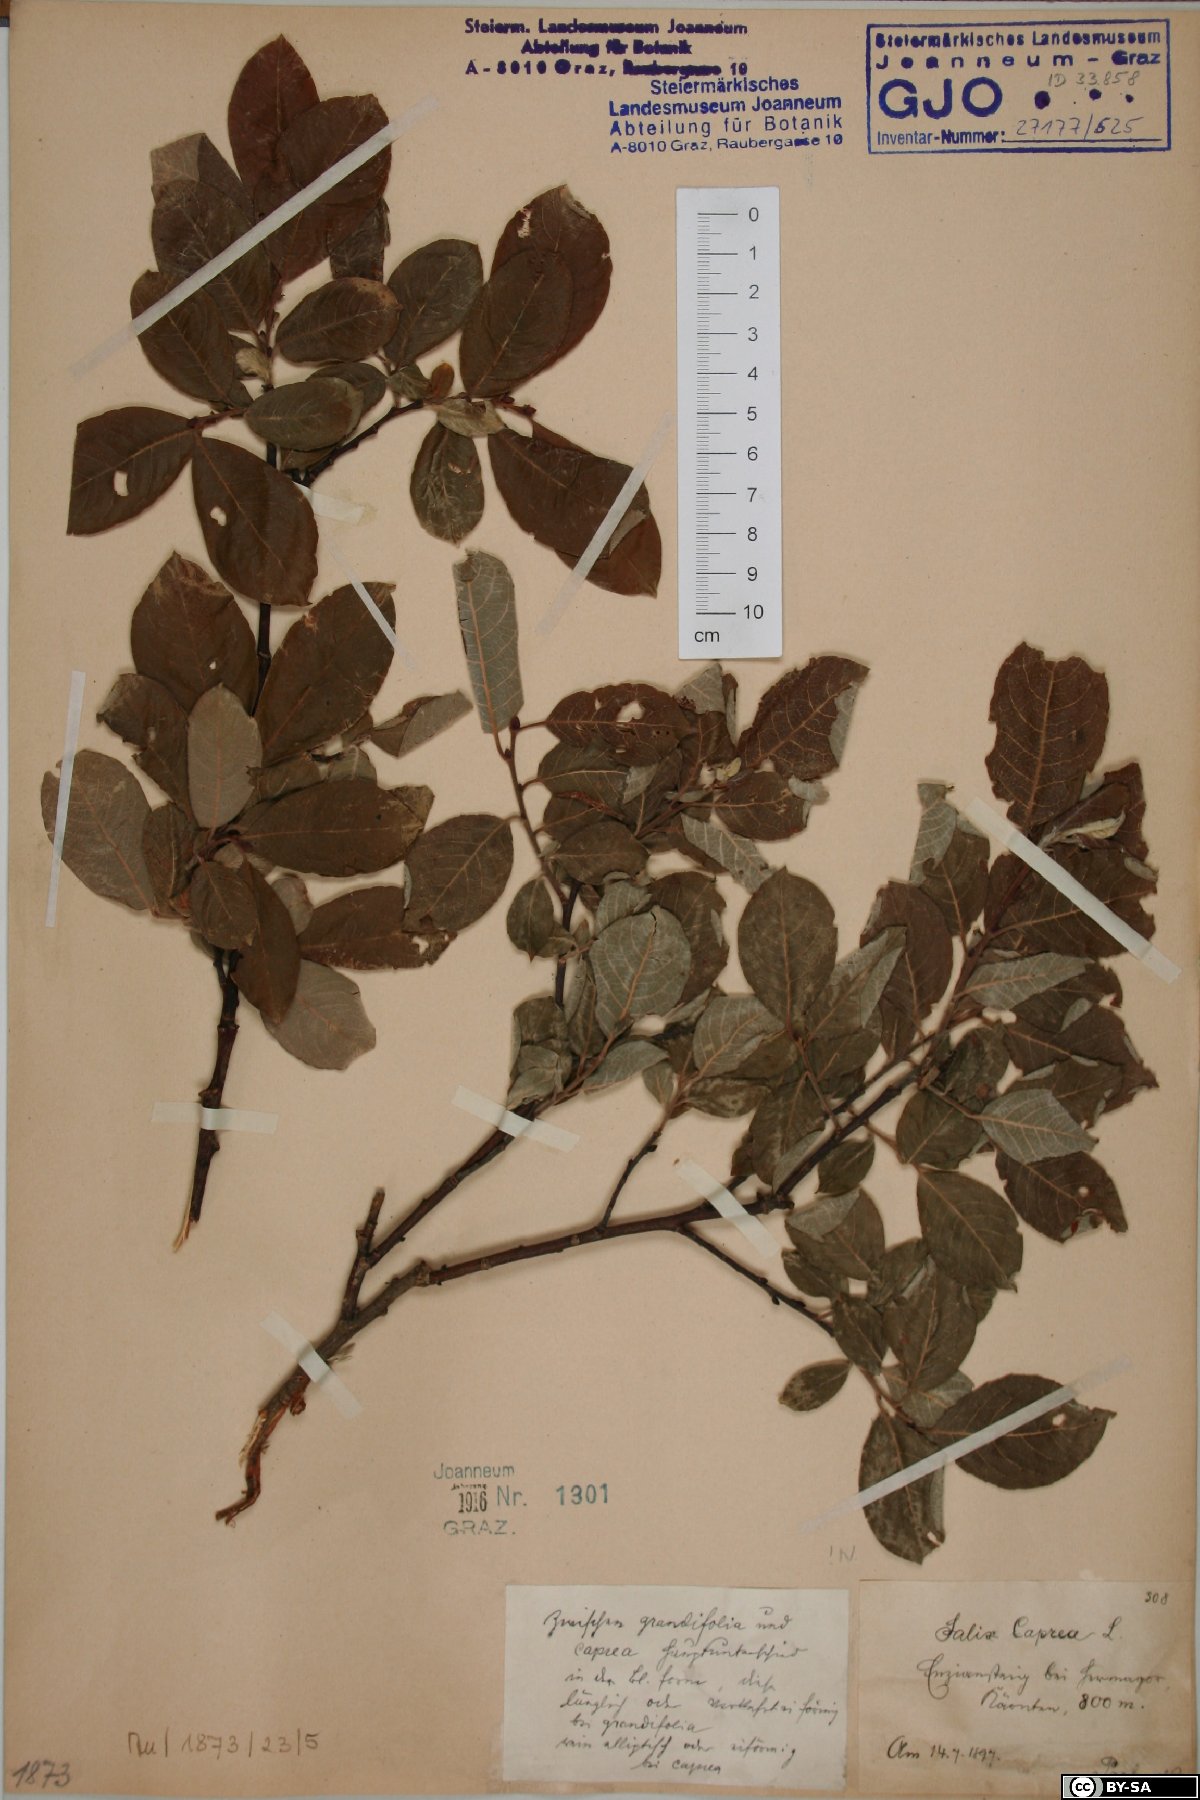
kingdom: Plantae
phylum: Tracheophyta
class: Magnoliopsida
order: Malpighiales
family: Salicaceae
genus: Salix
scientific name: Salix caprea
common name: Goat willow
